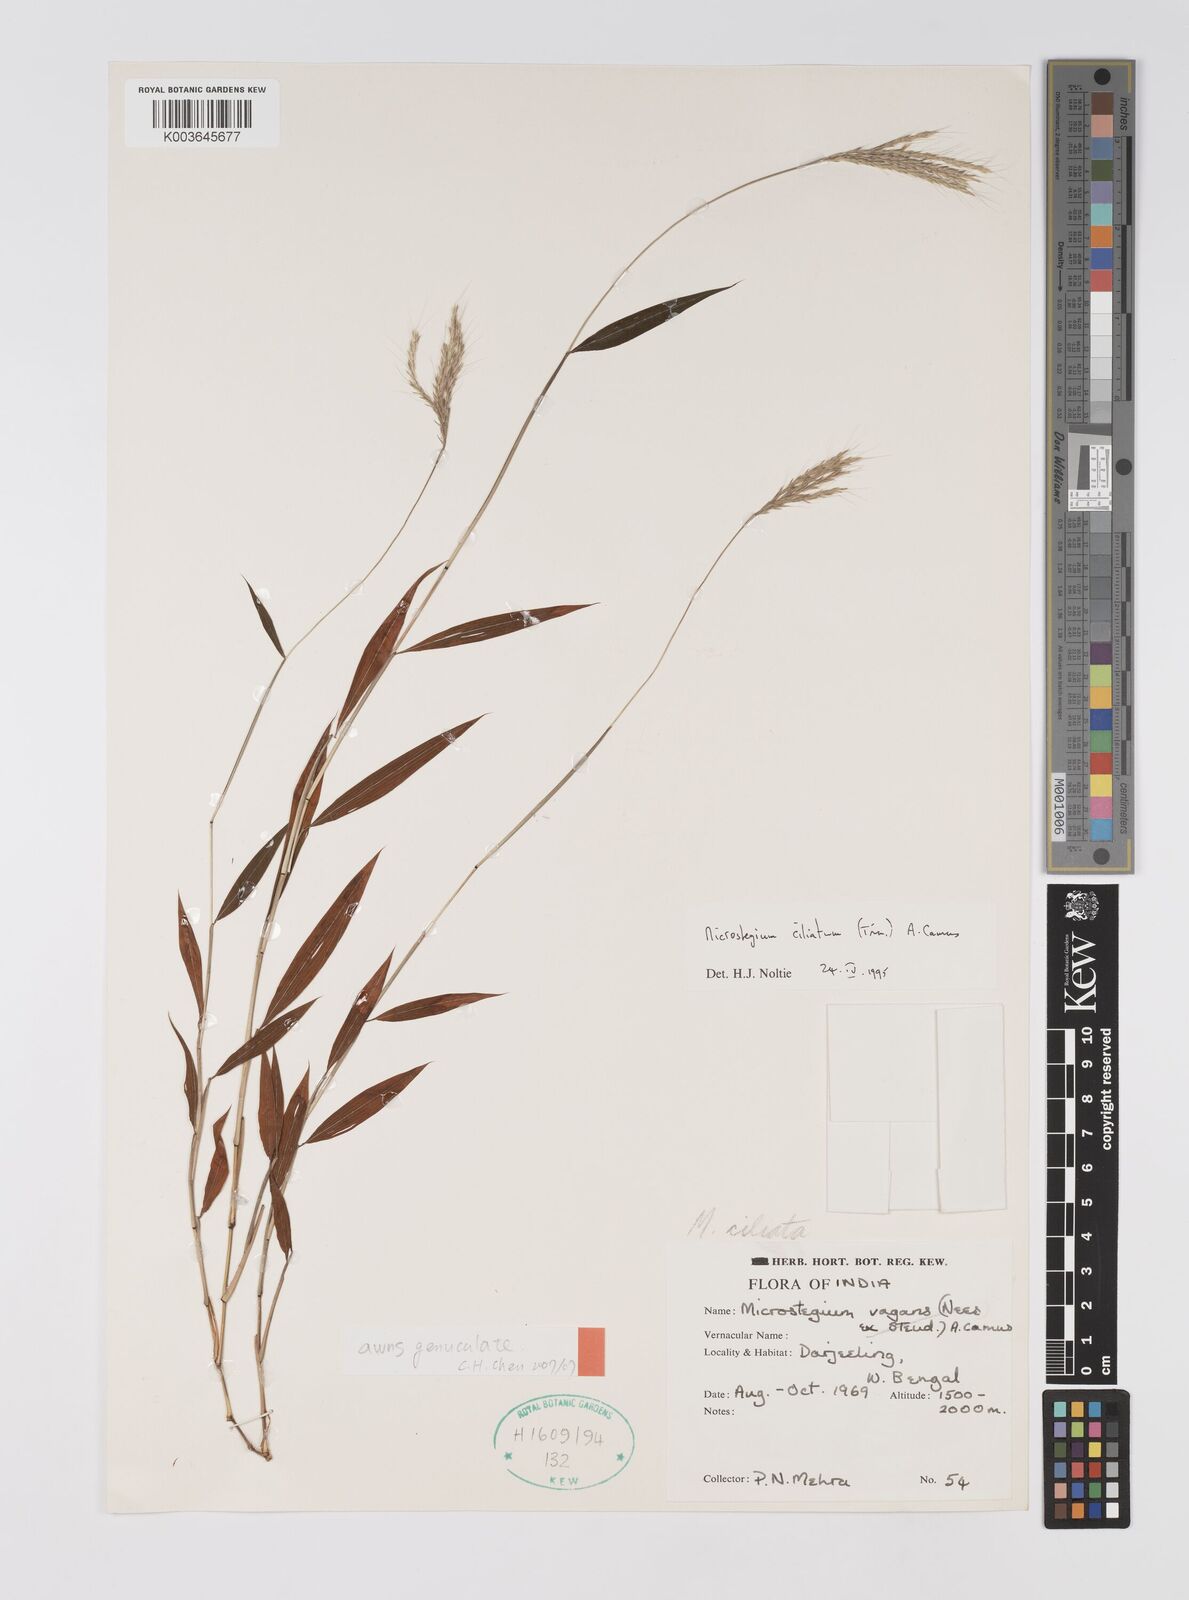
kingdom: Plantae
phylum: Tracheophyta
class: Liliopsida
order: Poales
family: Poaceae
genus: Microstegium
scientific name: Microstegium fasciculatum
